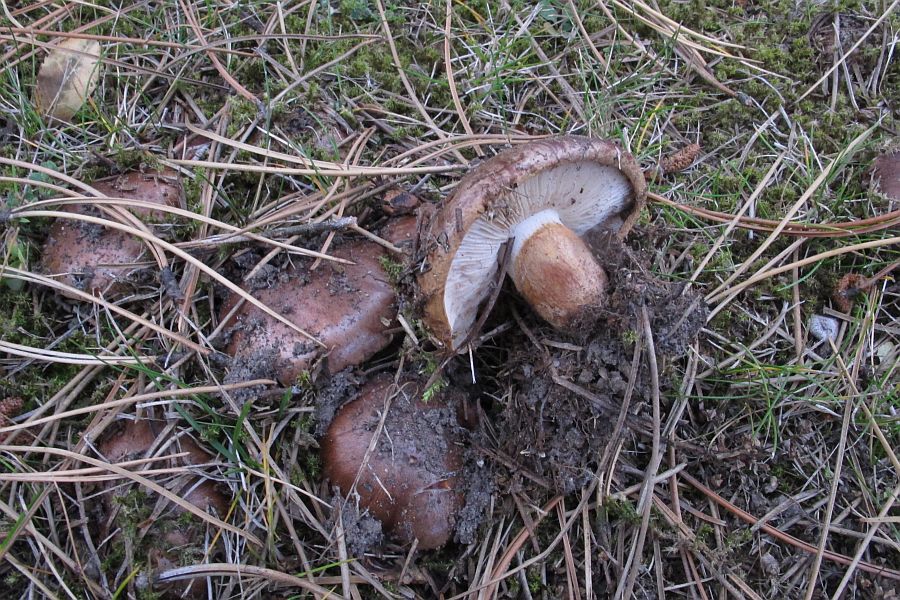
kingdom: Fungi
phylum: Basidiomycota
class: Agaricomycetes
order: Agaricales
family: Tricholomataceae
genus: Tricholoma
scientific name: Tricholoma fracticum
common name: hvidhalset ridderhat
